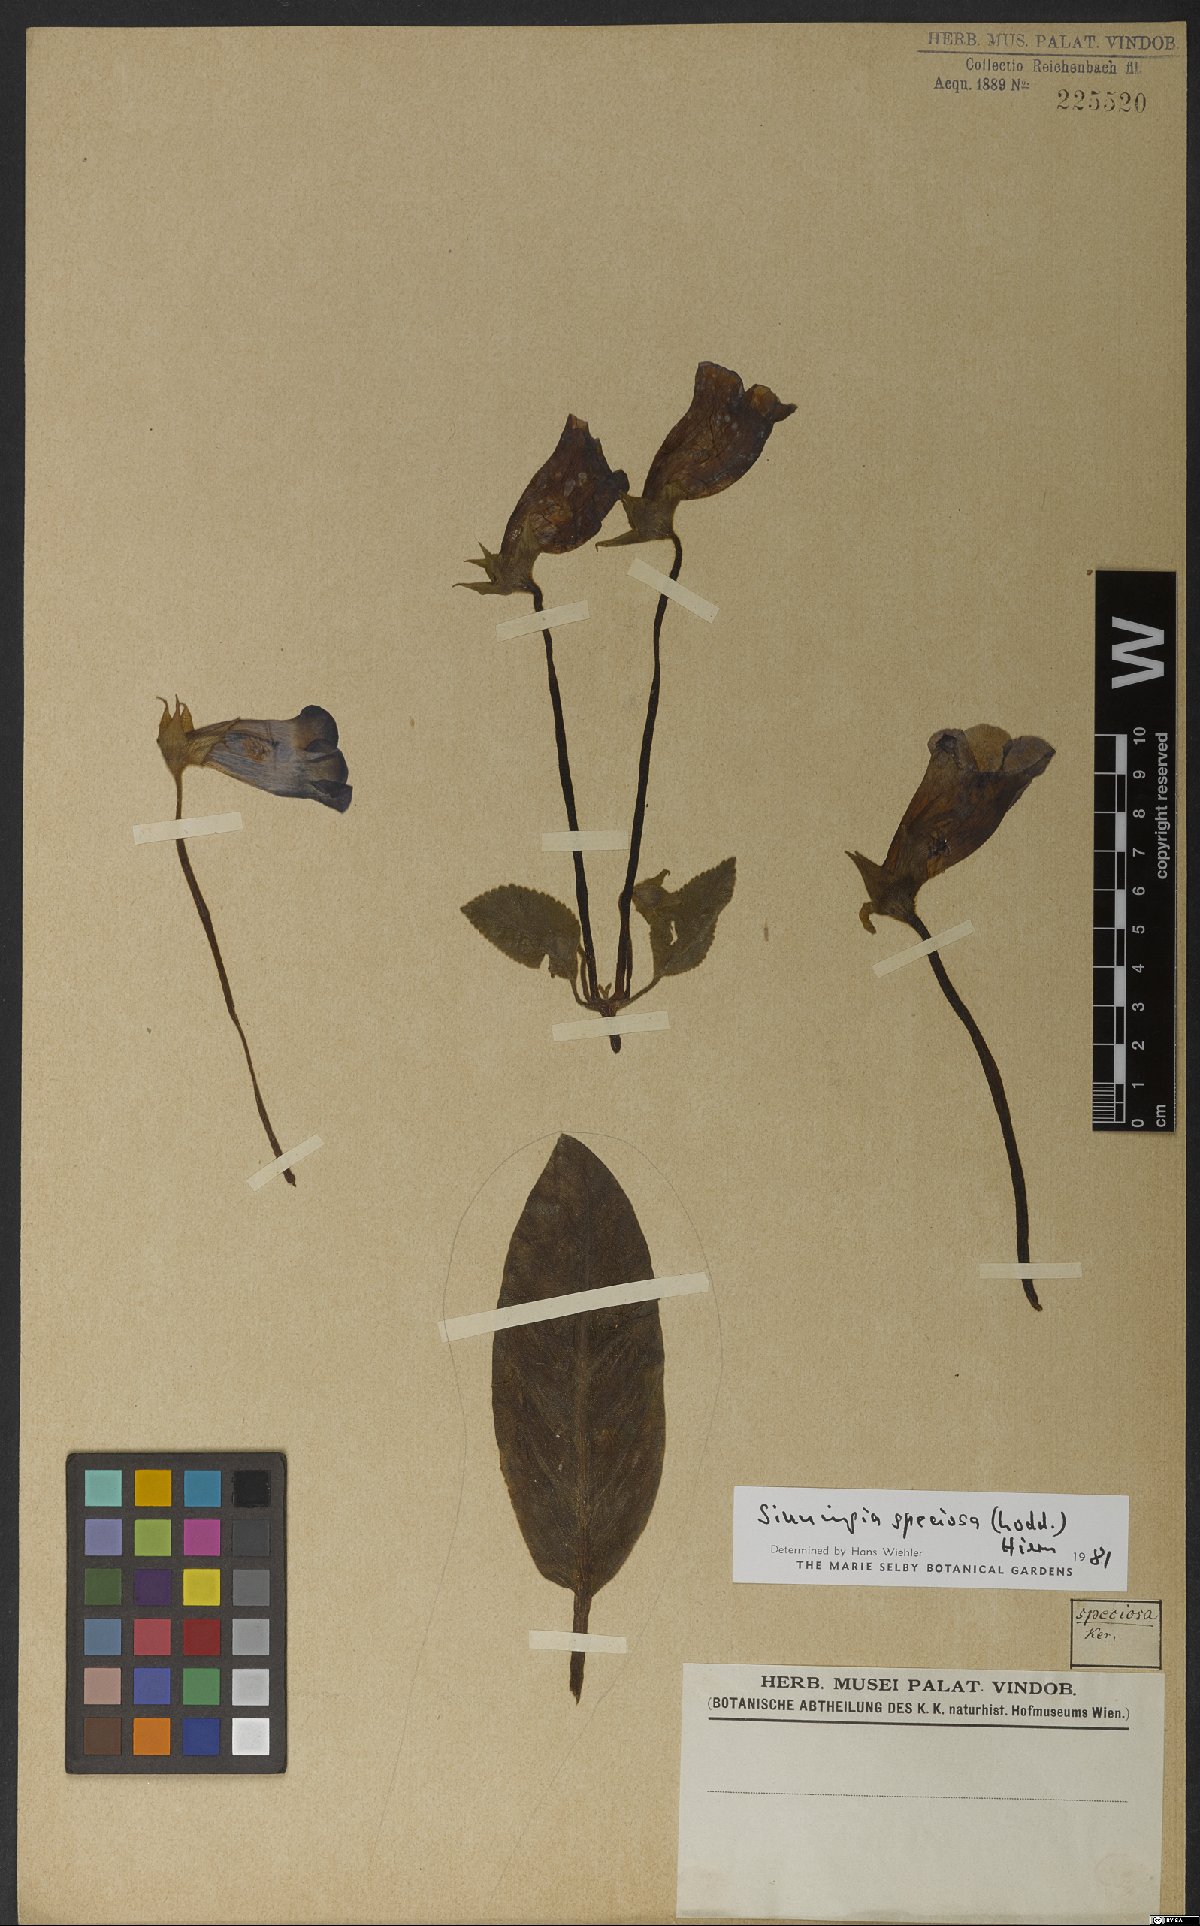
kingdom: Plantae
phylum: Tracheophyta
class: Magnoliopsida
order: Lamiales
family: Gesneriaceae
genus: Sinningia
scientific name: Sinningia speciosa
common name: Brazilian gloxinia
